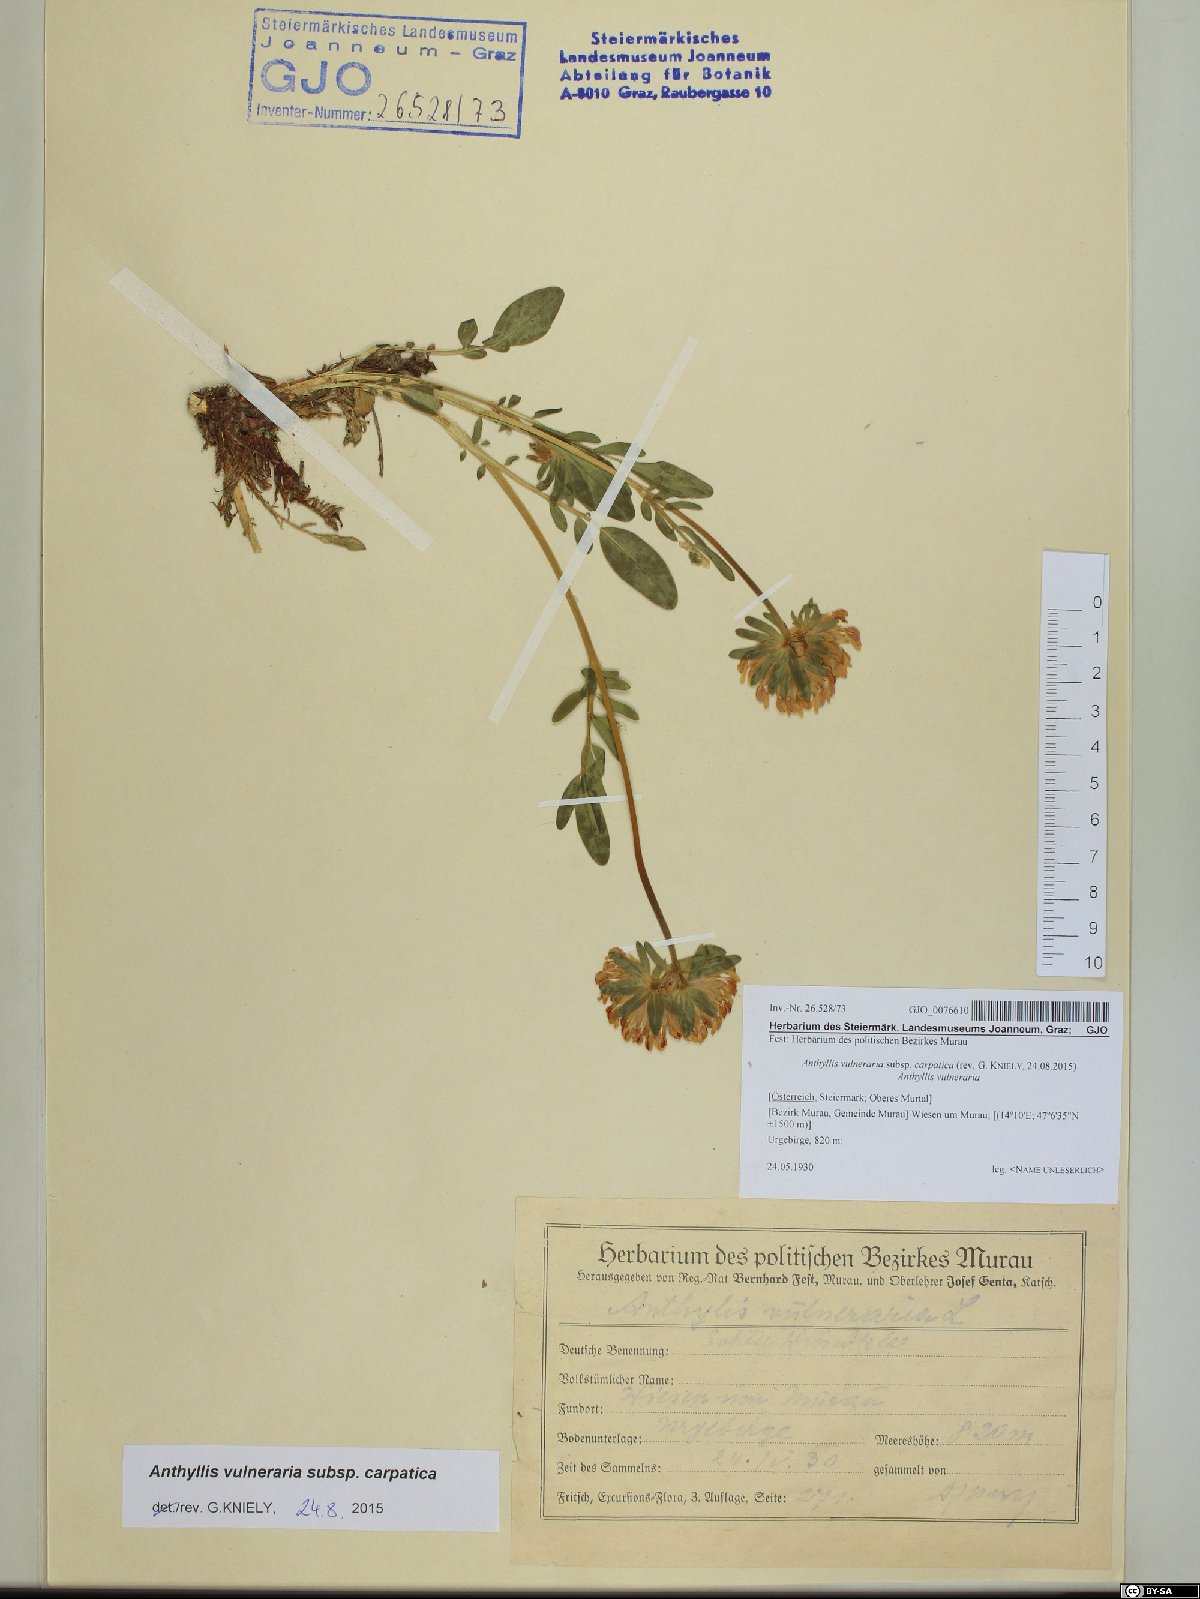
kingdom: Plantae
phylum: Tracheophyta
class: Magnoliopsida
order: Fabales
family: Fabaceae
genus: Anthyllis
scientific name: Anthyllis vulneraria
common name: Kidney vetch
